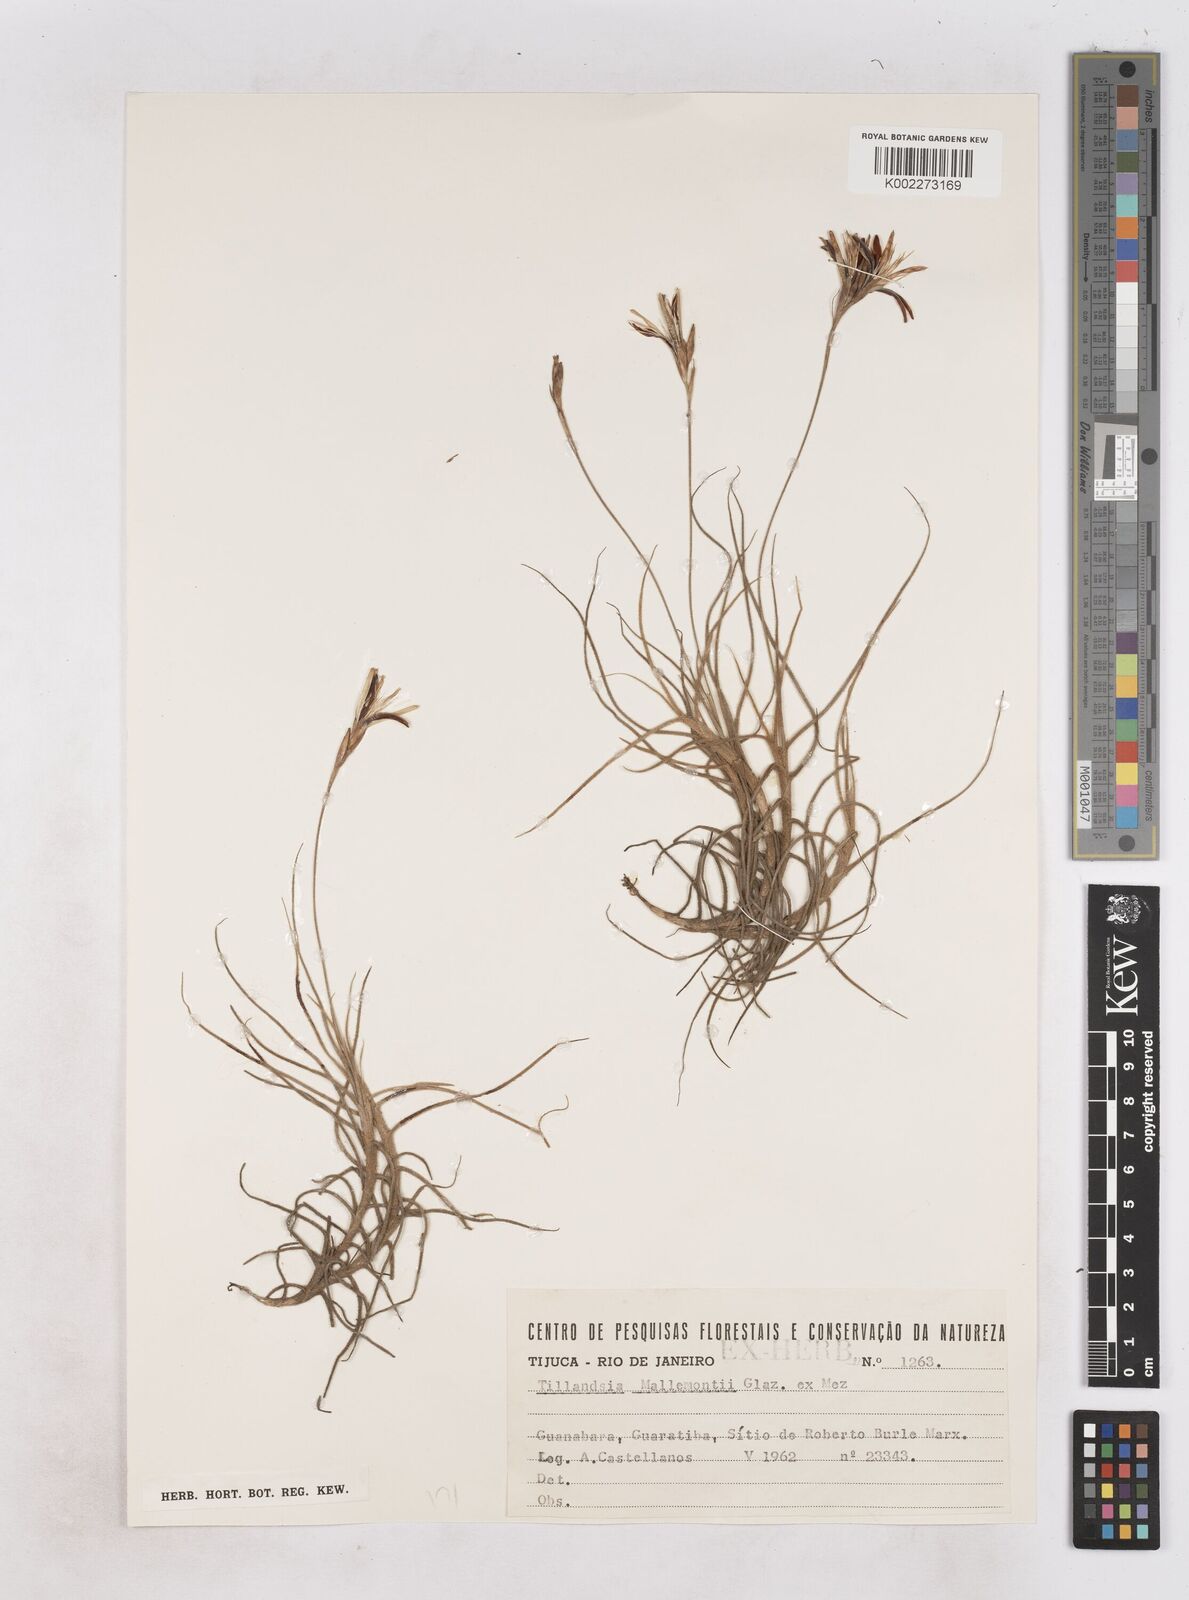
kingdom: Plantae
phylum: Tracheophyta
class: Liliopsida
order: Poales
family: Bromeliaceae
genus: Tillandsia
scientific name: Tillandsia mallemontii
